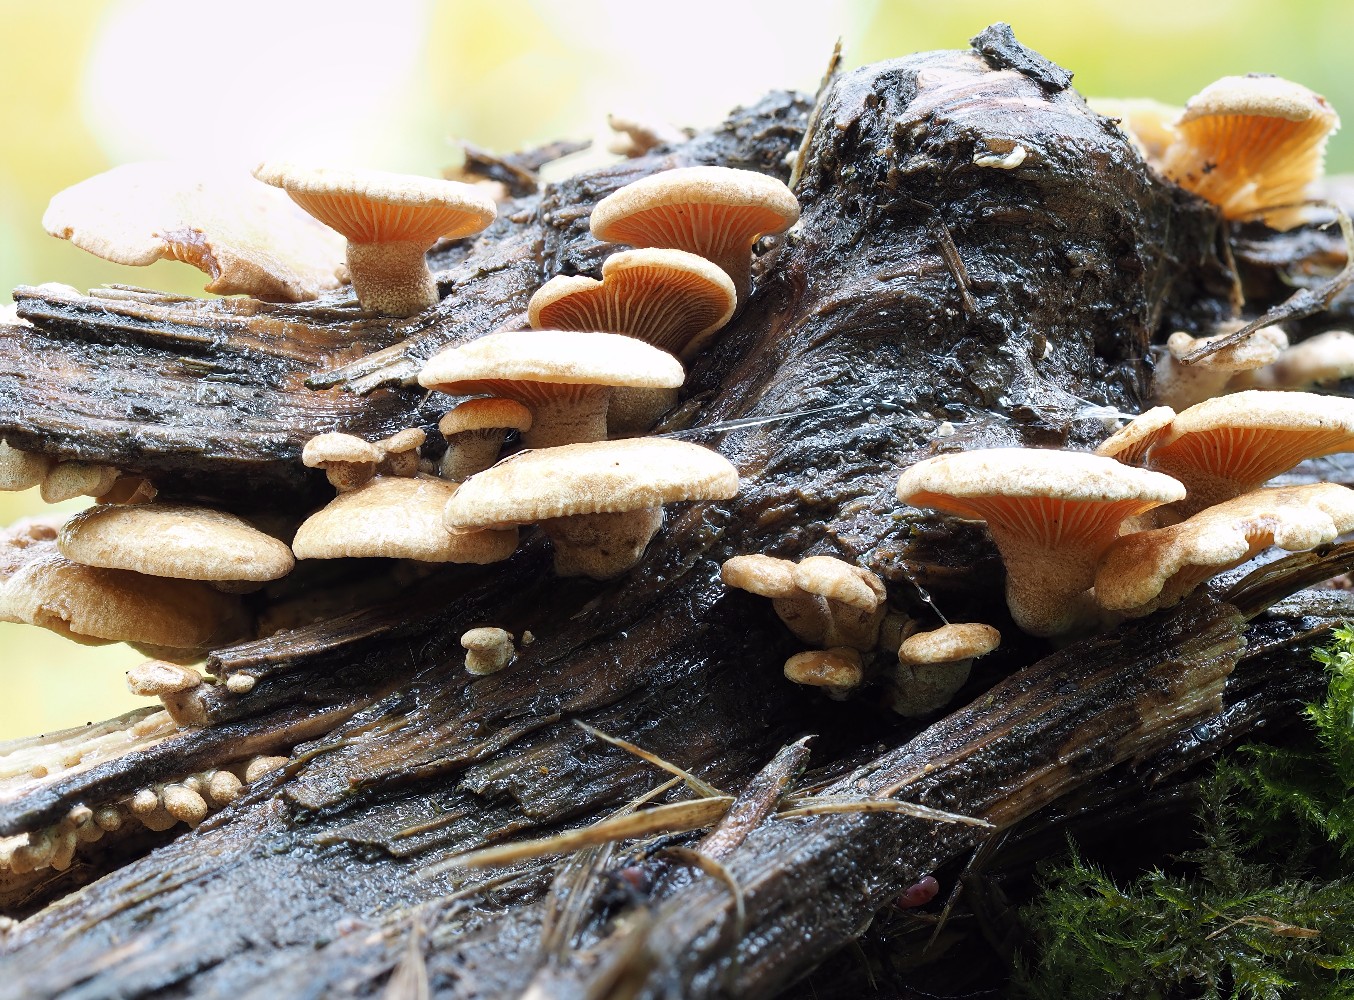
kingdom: Fungi
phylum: Basidiomycota
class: Agaricomycetes
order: Agaricales
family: Mycenaceae
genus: Panellus
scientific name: Panellus stipticus
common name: kliddet epaulethat
